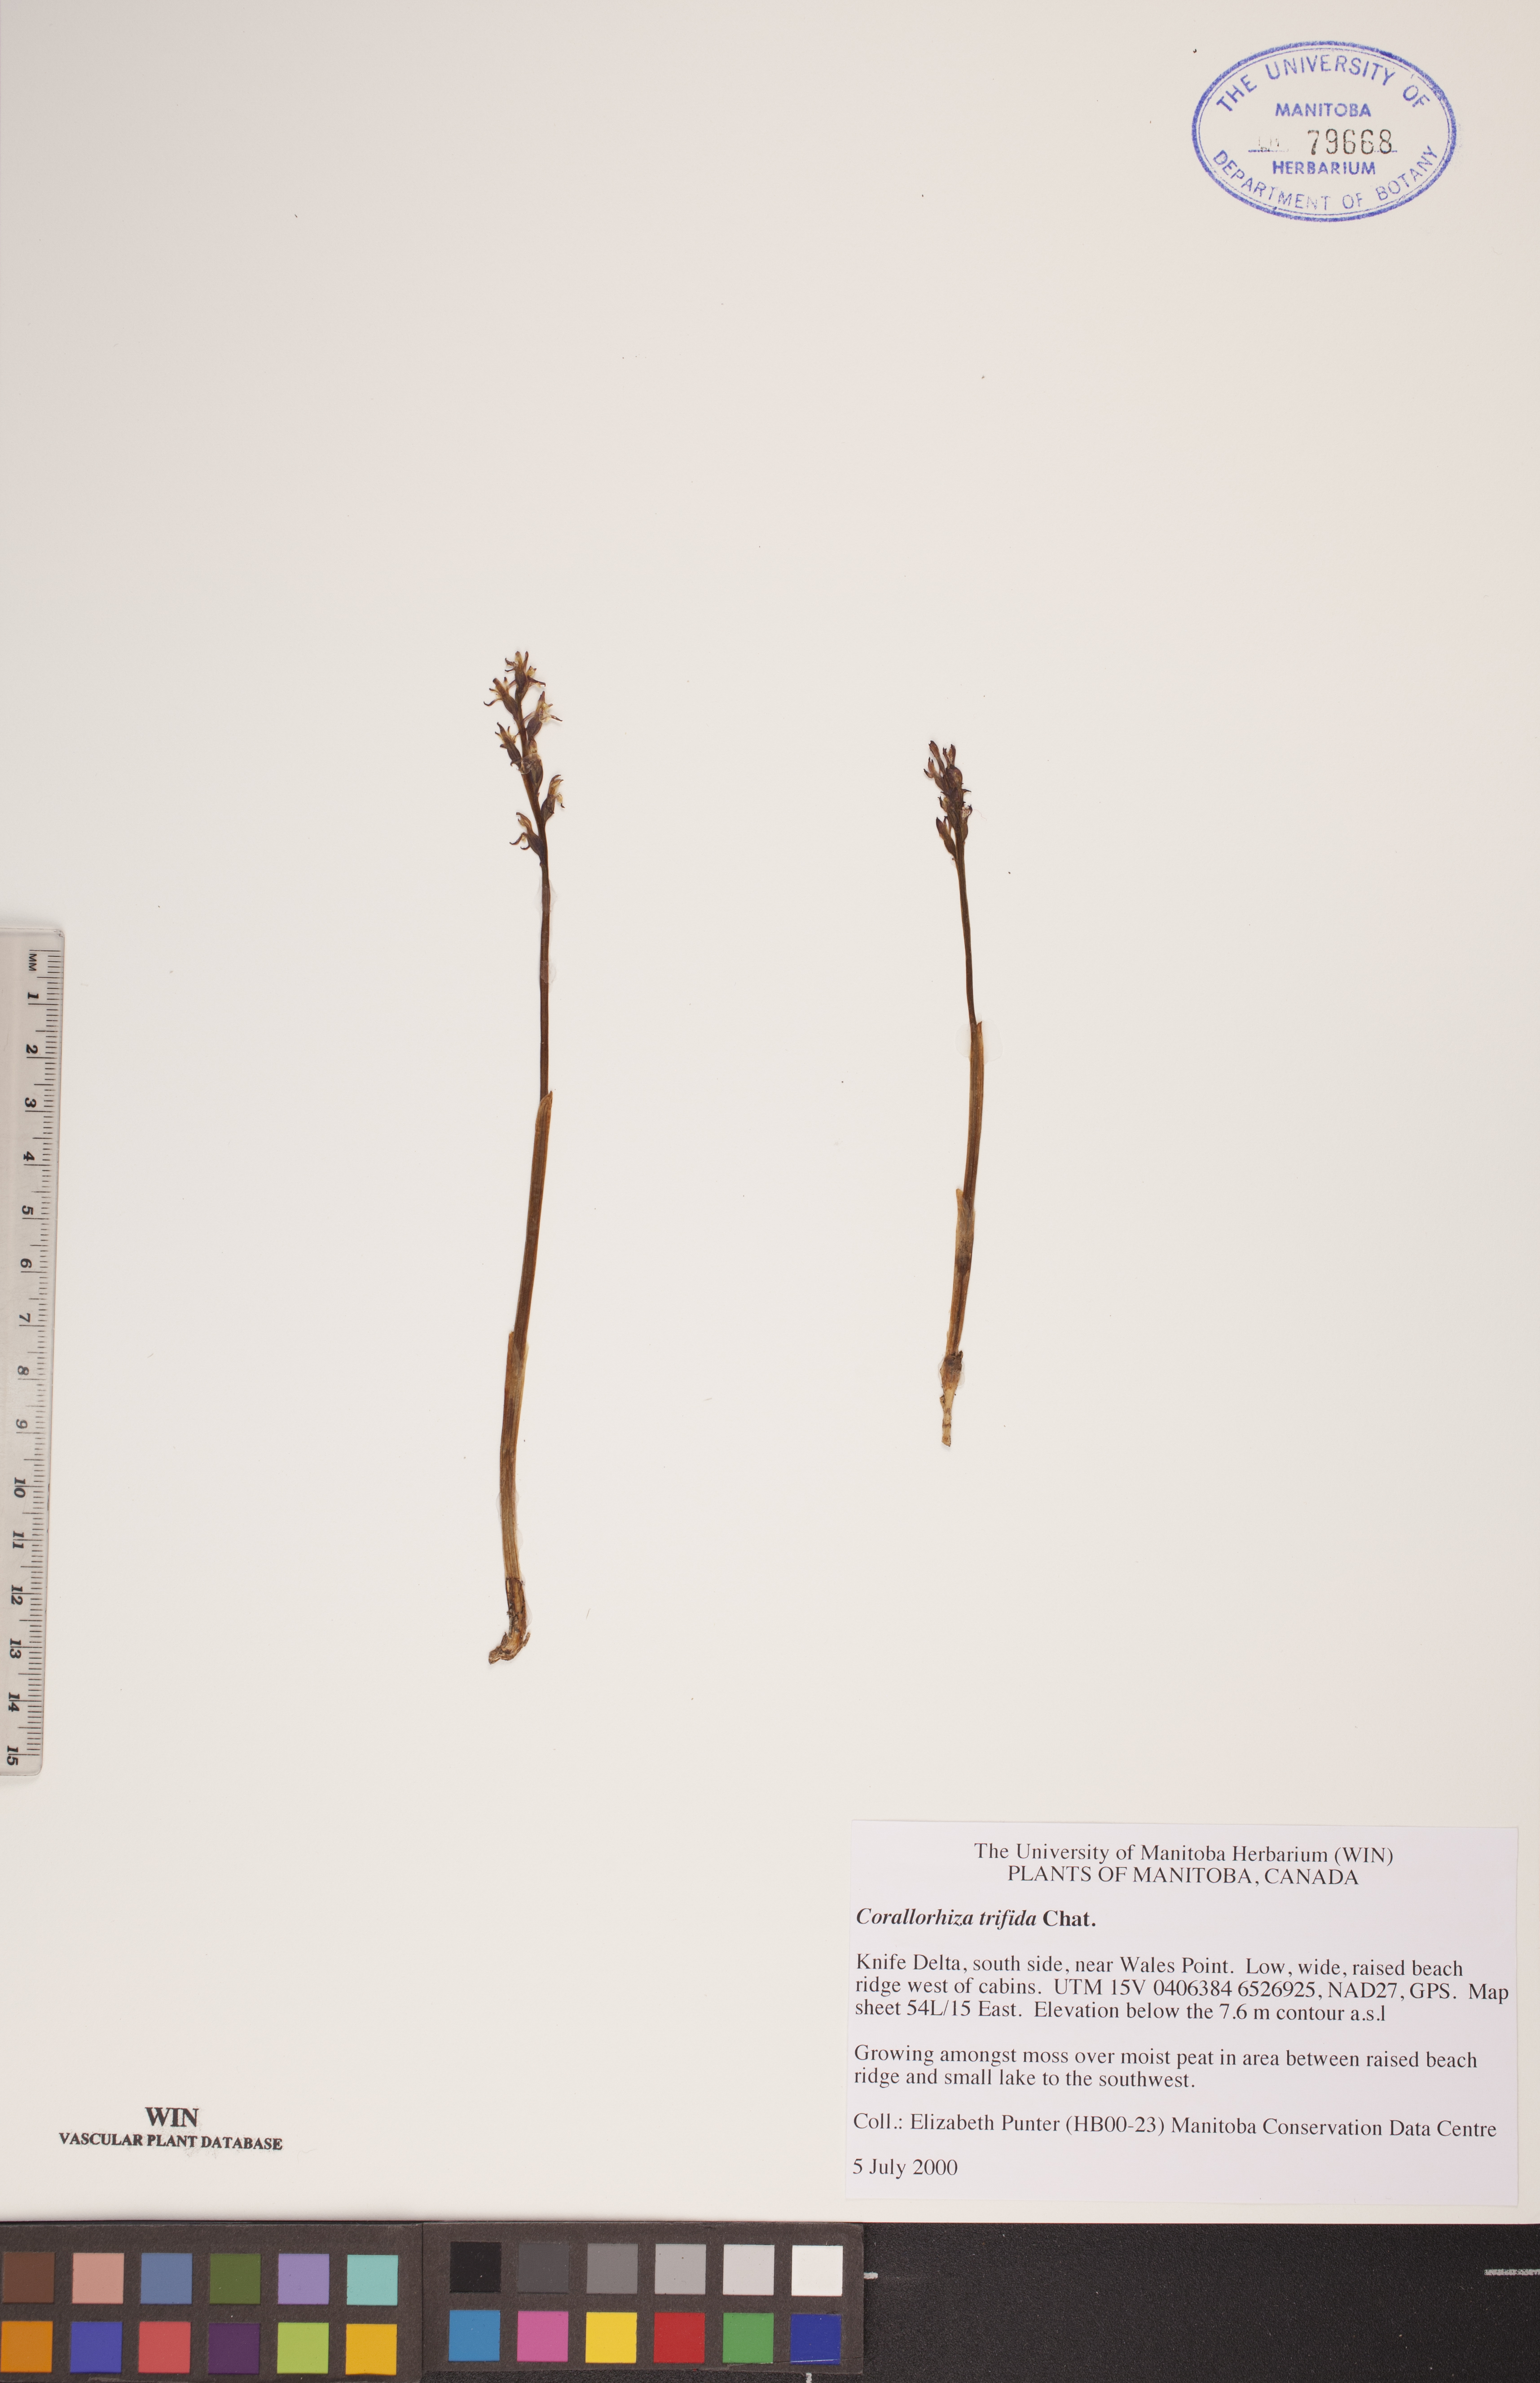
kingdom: Plantae
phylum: Tracheophyta
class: Liliopsida
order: Asparagales
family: Orchidaceae
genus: Corallorhiza
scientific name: Corallorhiza trifida
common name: Yellow coralroot
